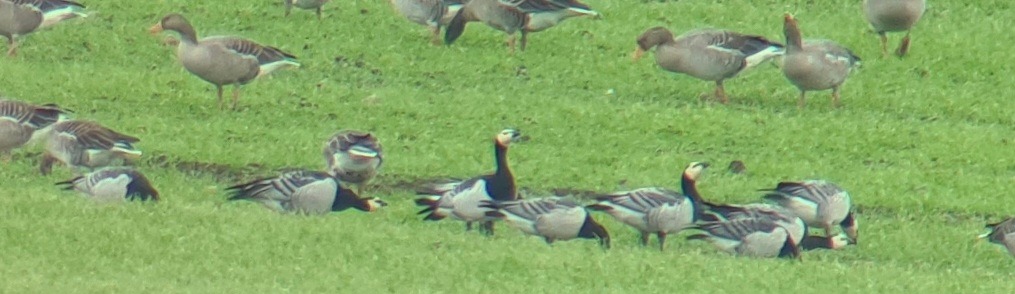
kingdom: Animalia
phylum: Chordata
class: Aves
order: Anseriformes
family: Anatidae
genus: Branta
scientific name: Branta leucopsis
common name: Bramgås
